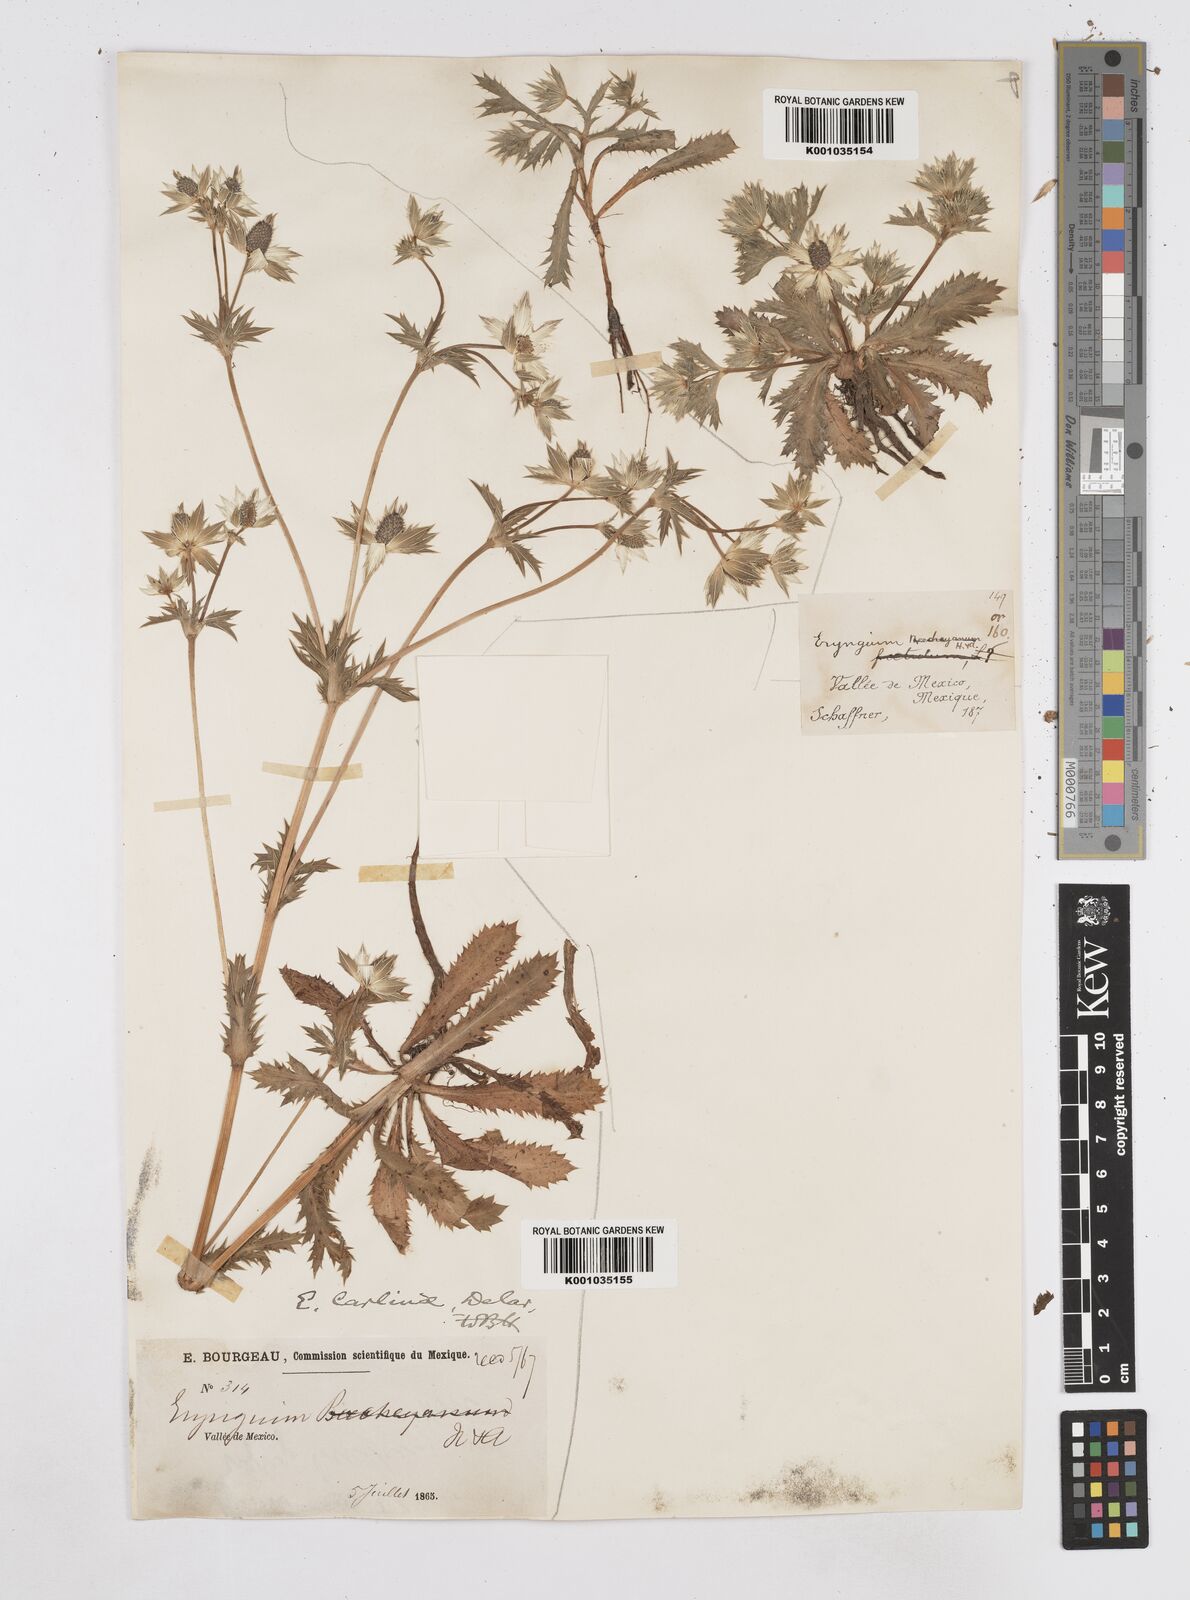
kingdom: Plantae
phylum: Tracheophyta
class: Magnoliopsida
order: Apiales
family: Apiaceae
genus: Eryngium
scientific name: Eryngium carlinae
